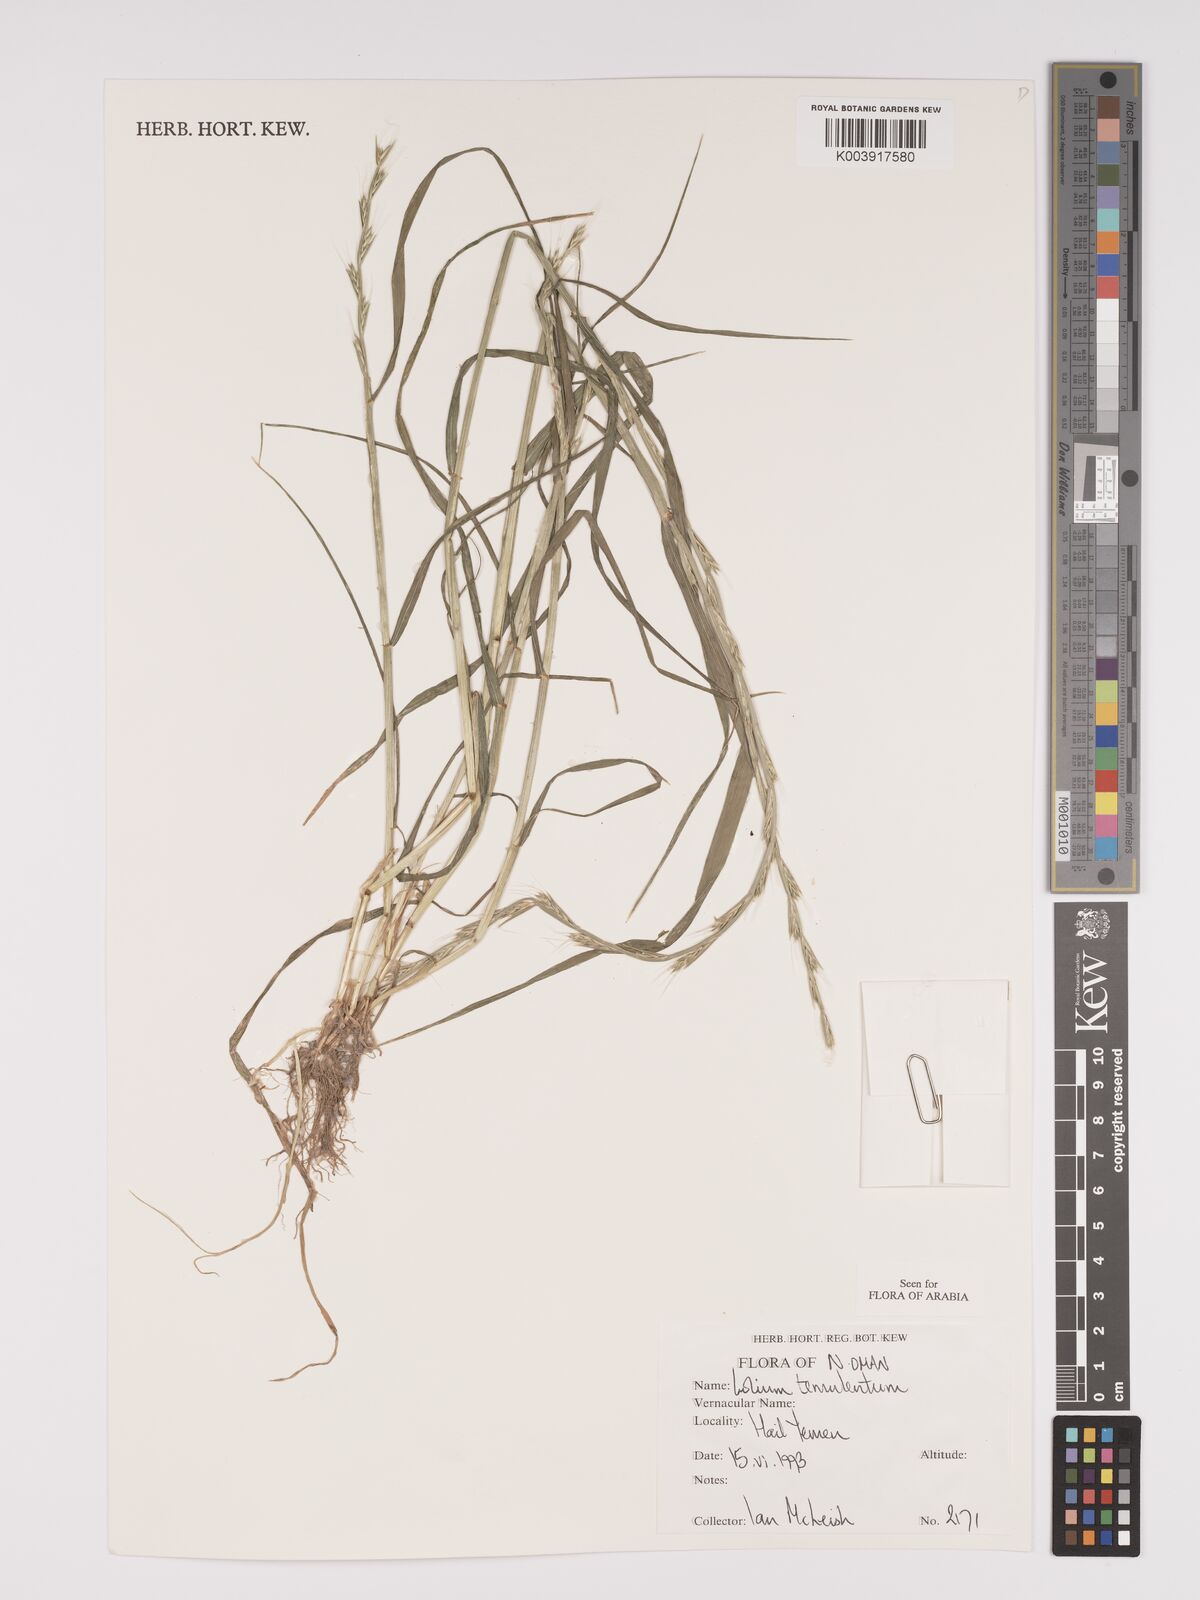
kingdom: Plantae
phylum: Tracheophyta
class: Liliopsida
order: Poales
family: Poaceae
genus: Lolium
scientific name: Lolium temulentum
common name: Darnel
